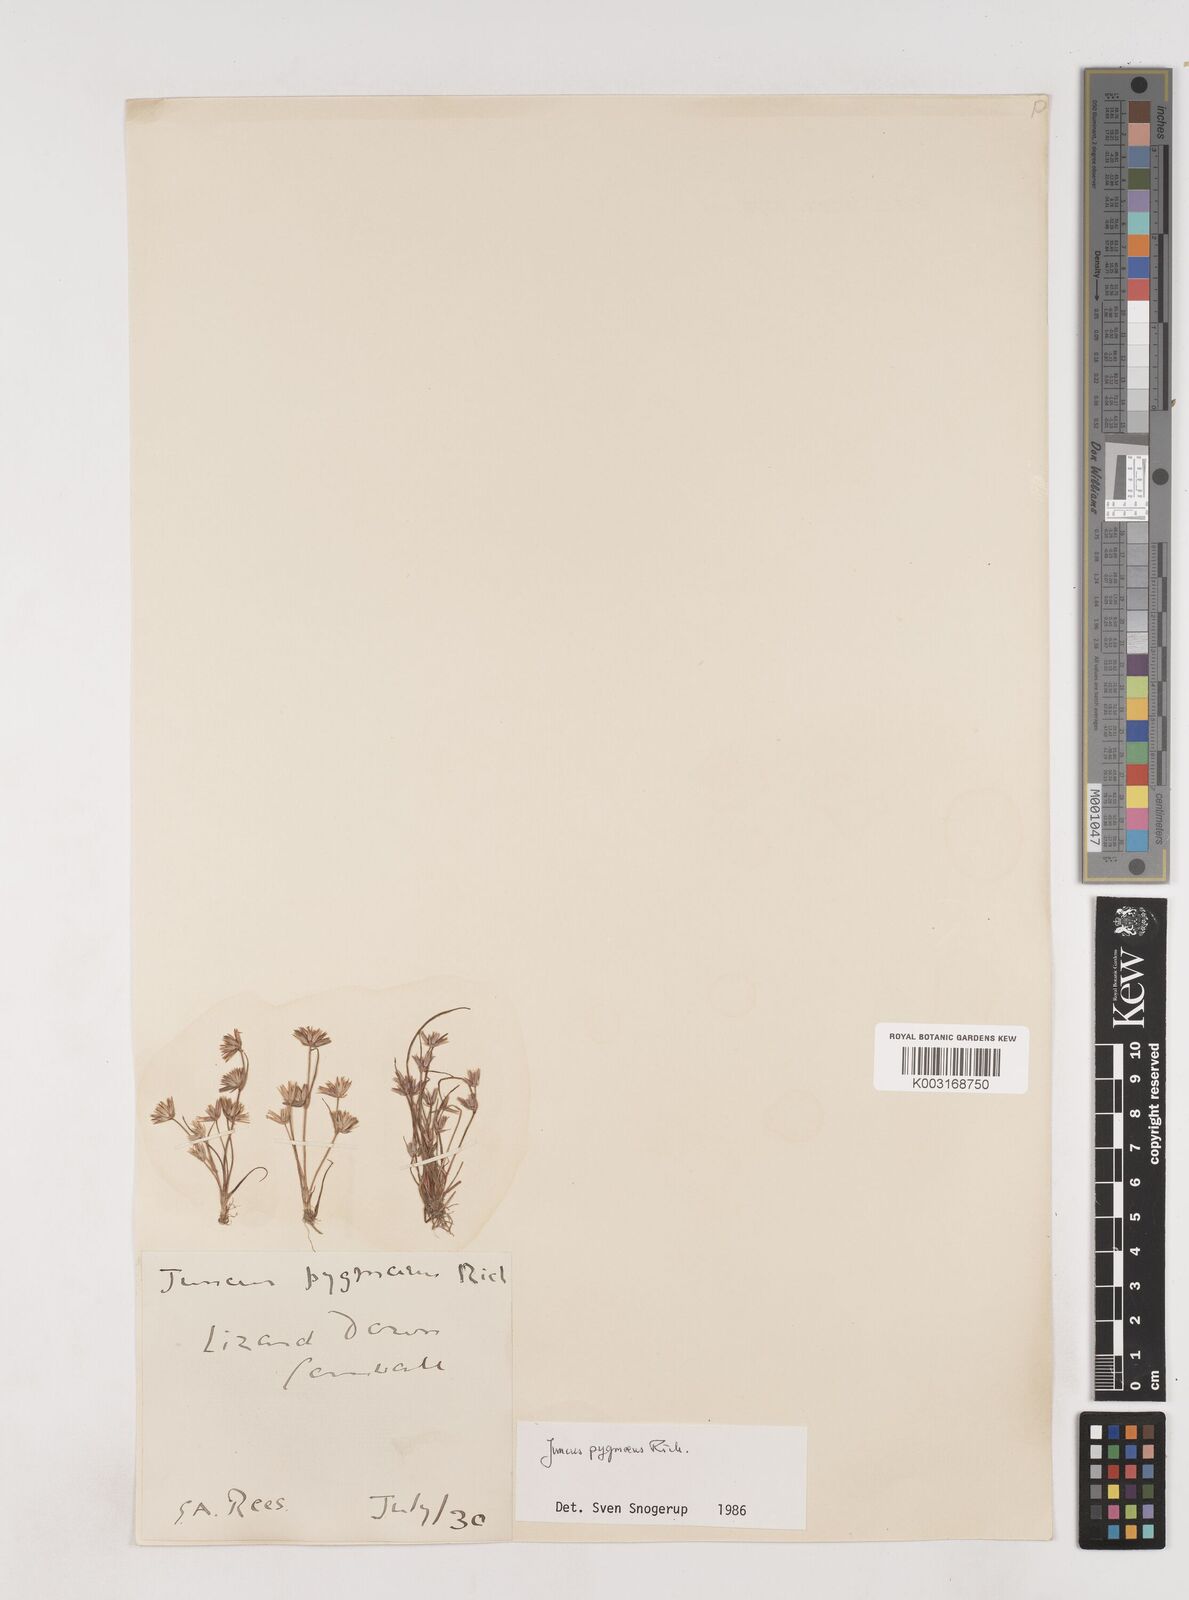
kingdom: Plantae
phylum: Tracheophyta
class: Liliopsida
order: Poales
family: Juncaceae
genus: Juncus
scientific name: Juncus pygmaeus
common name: Pigmy rush
